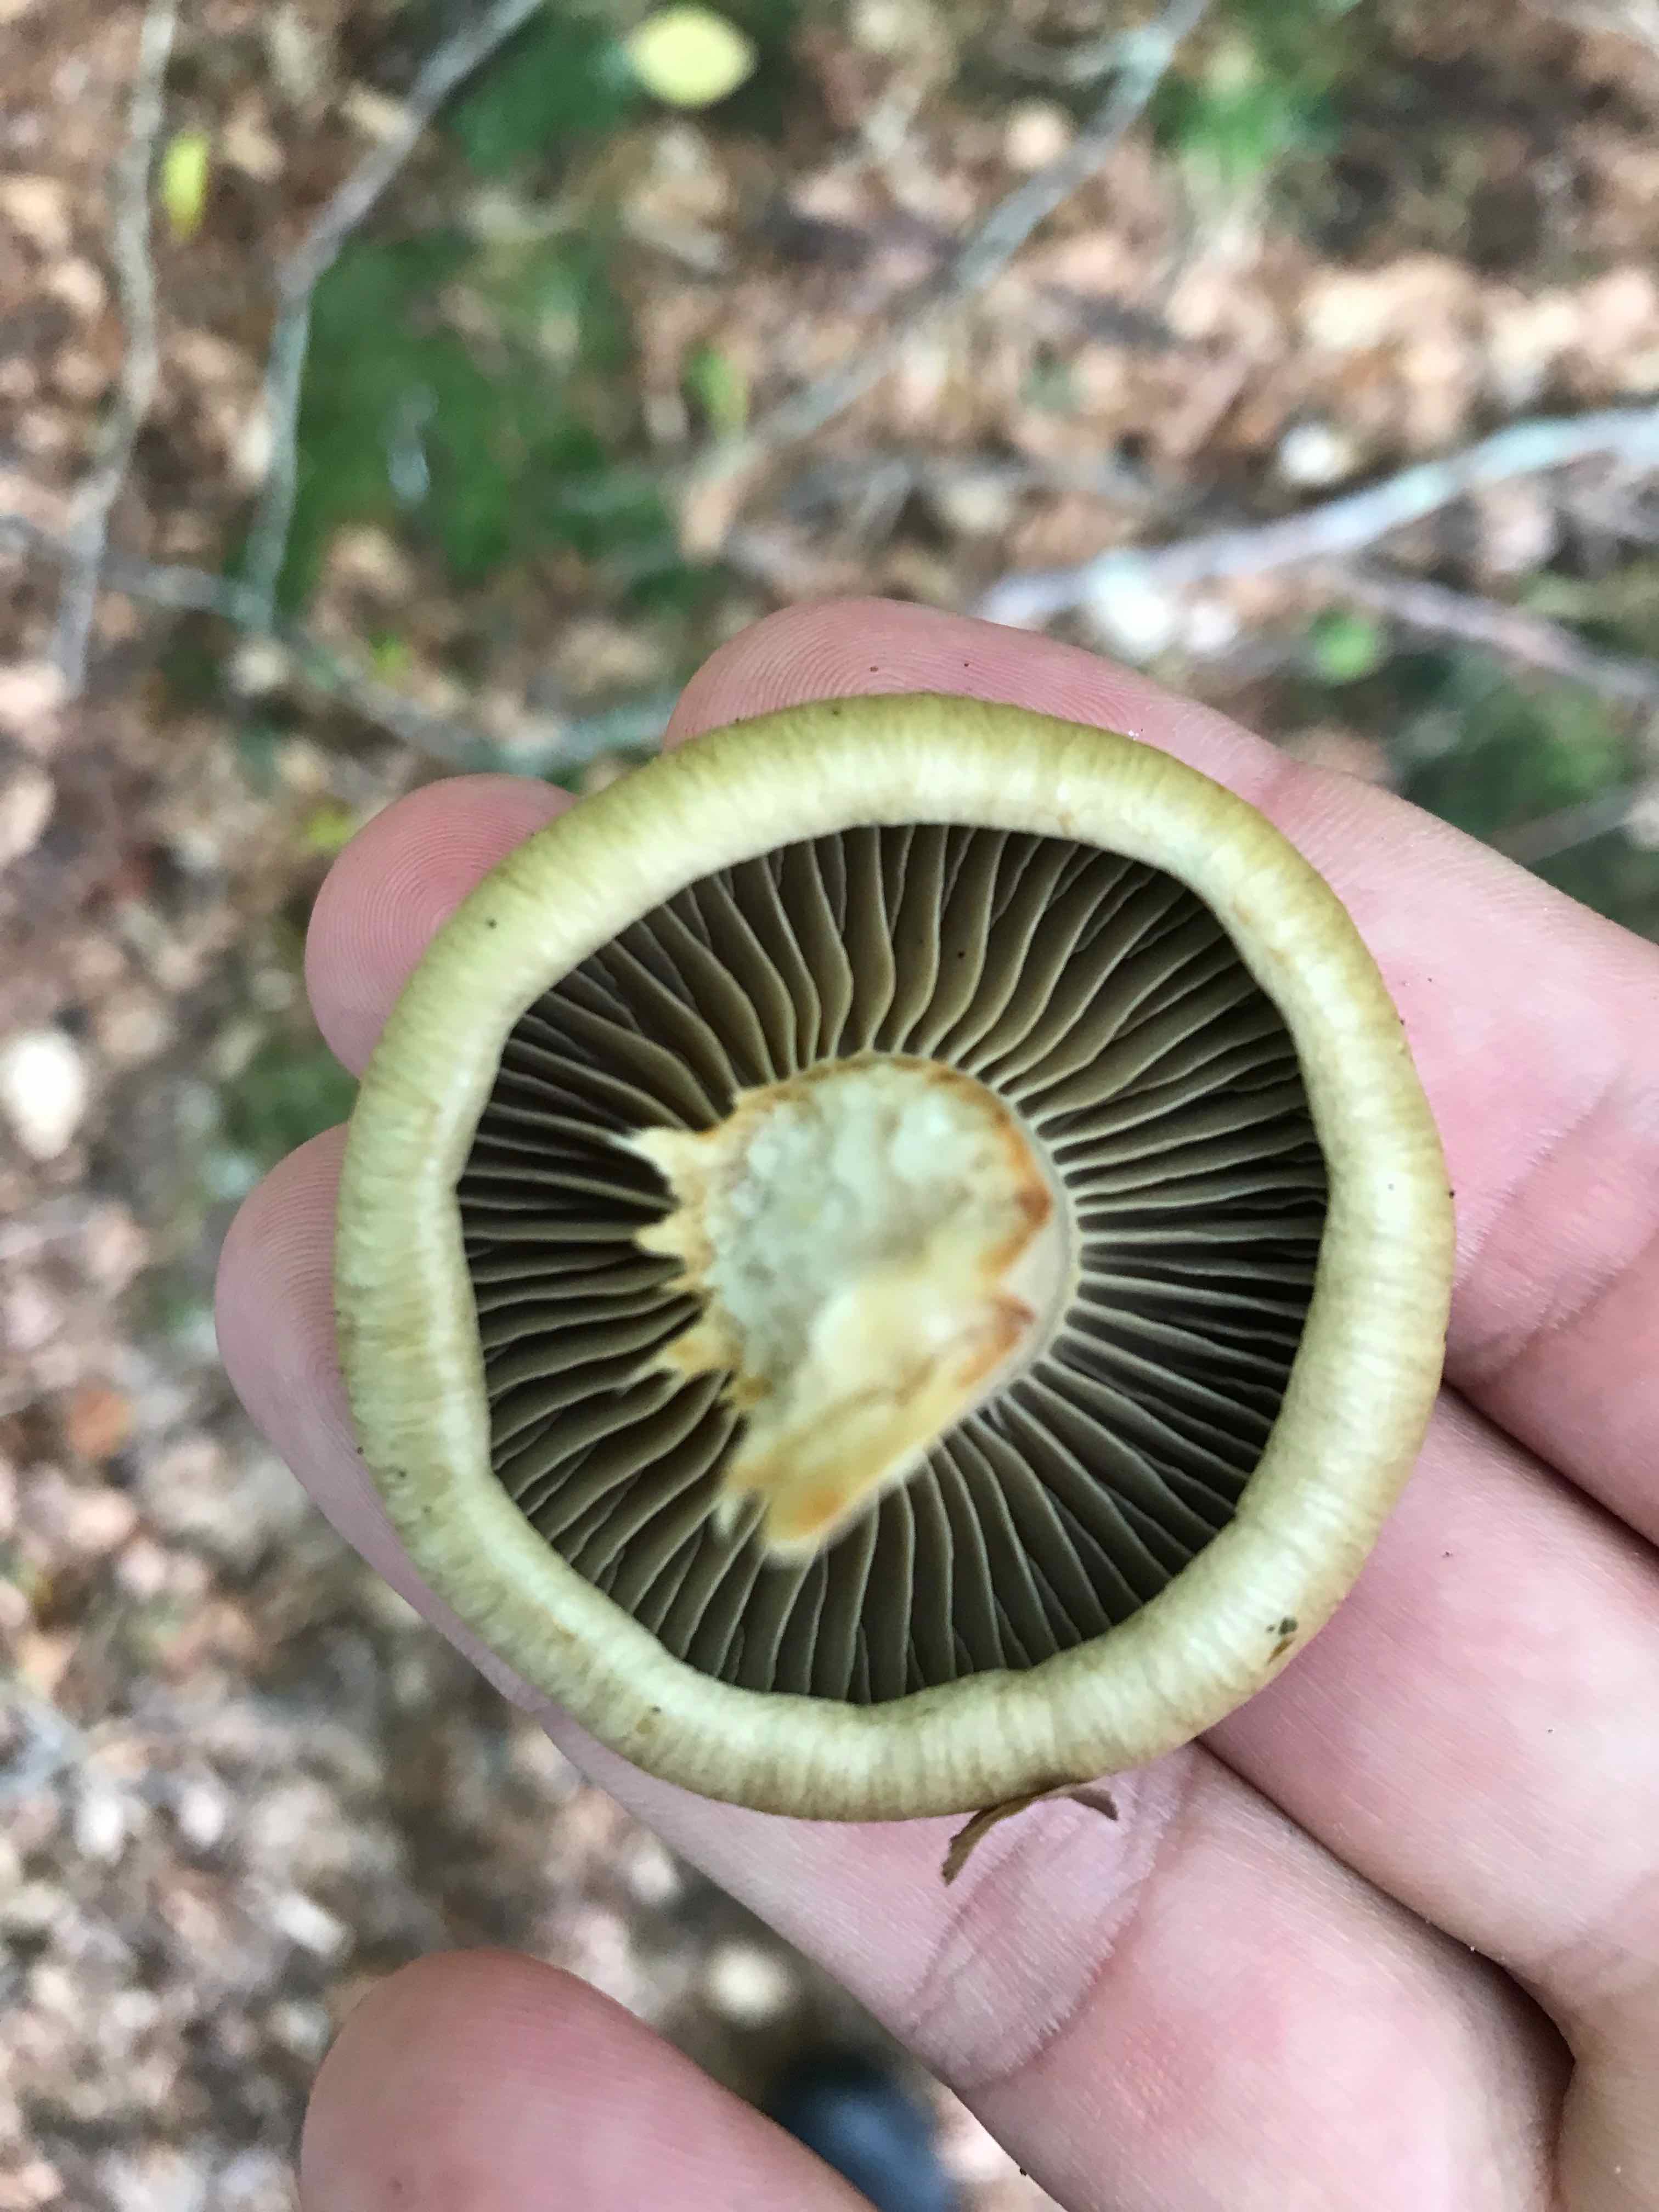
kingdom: Fungi
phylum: Basidiomycota
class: Agaricomycetes
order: Agaricales
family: Cortinariaceae
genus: Cortinarius
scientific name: Cortinarius subtortus
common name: olivengul slørhat
